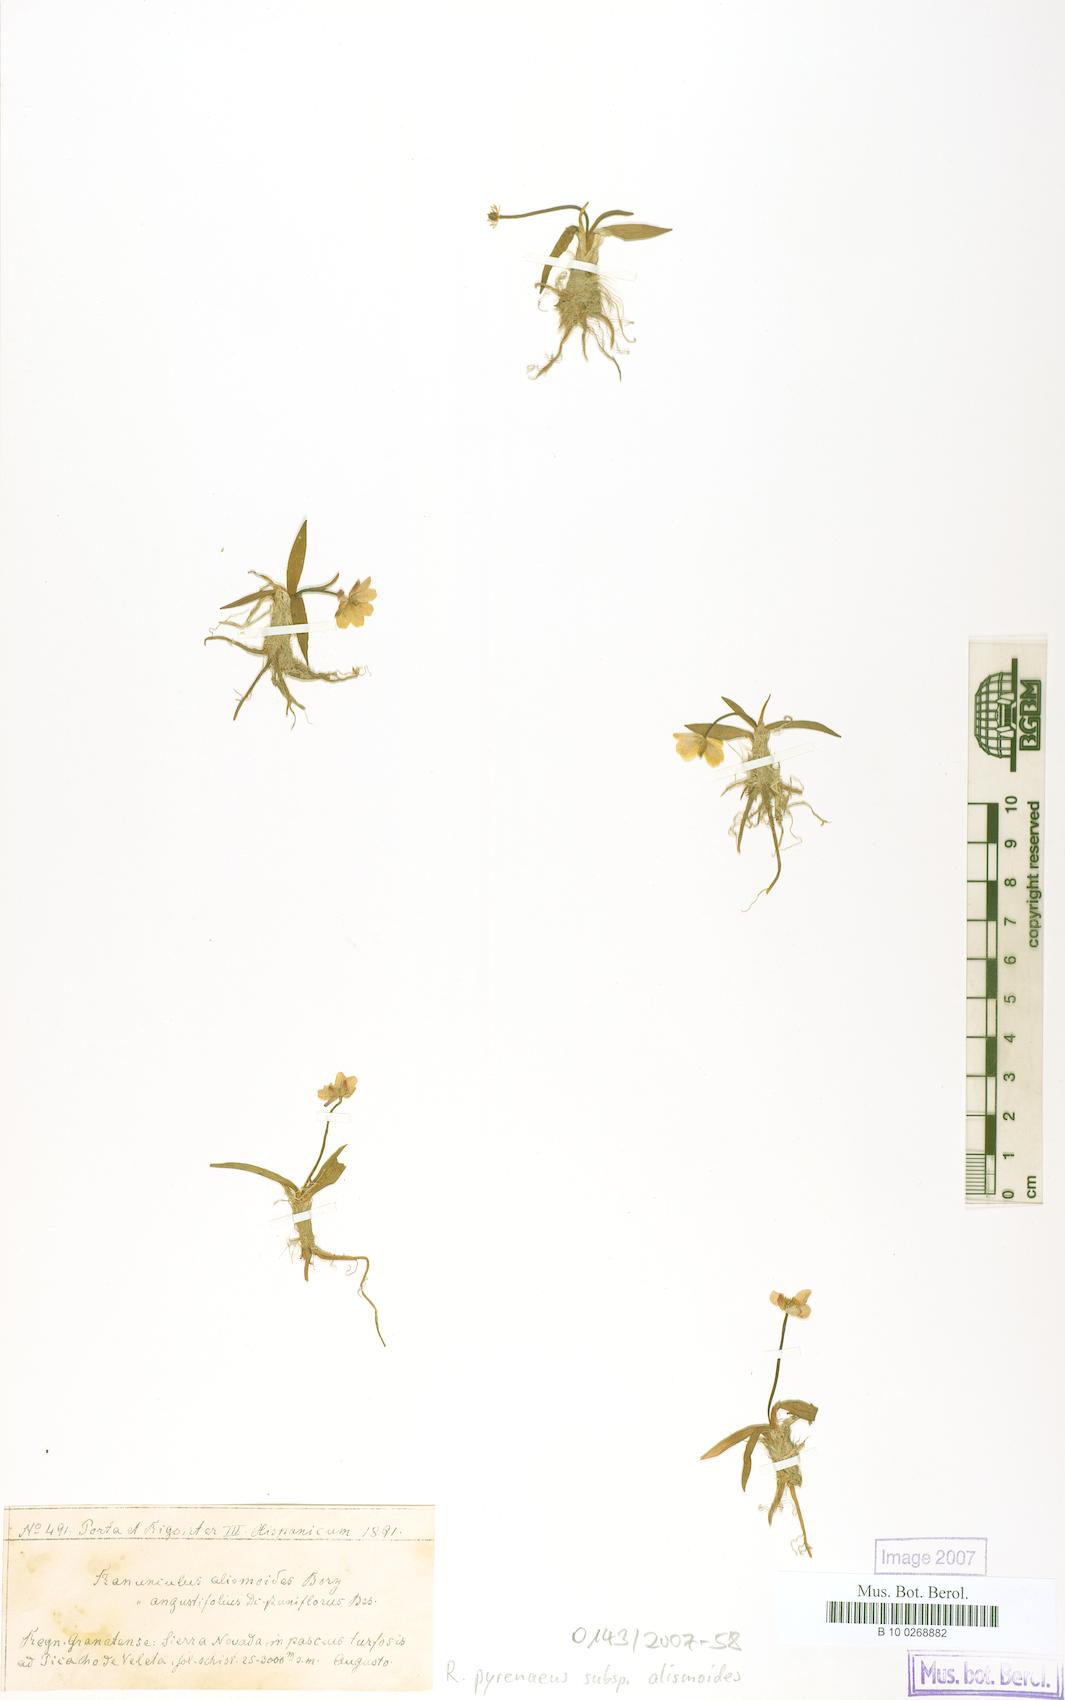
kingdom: Plantae
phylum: Tracheophyta
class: Magnoliopsida
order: Ranunculales
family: Ranunculaceae
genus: Ranunculus
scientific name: Ranunculus angustifolius
